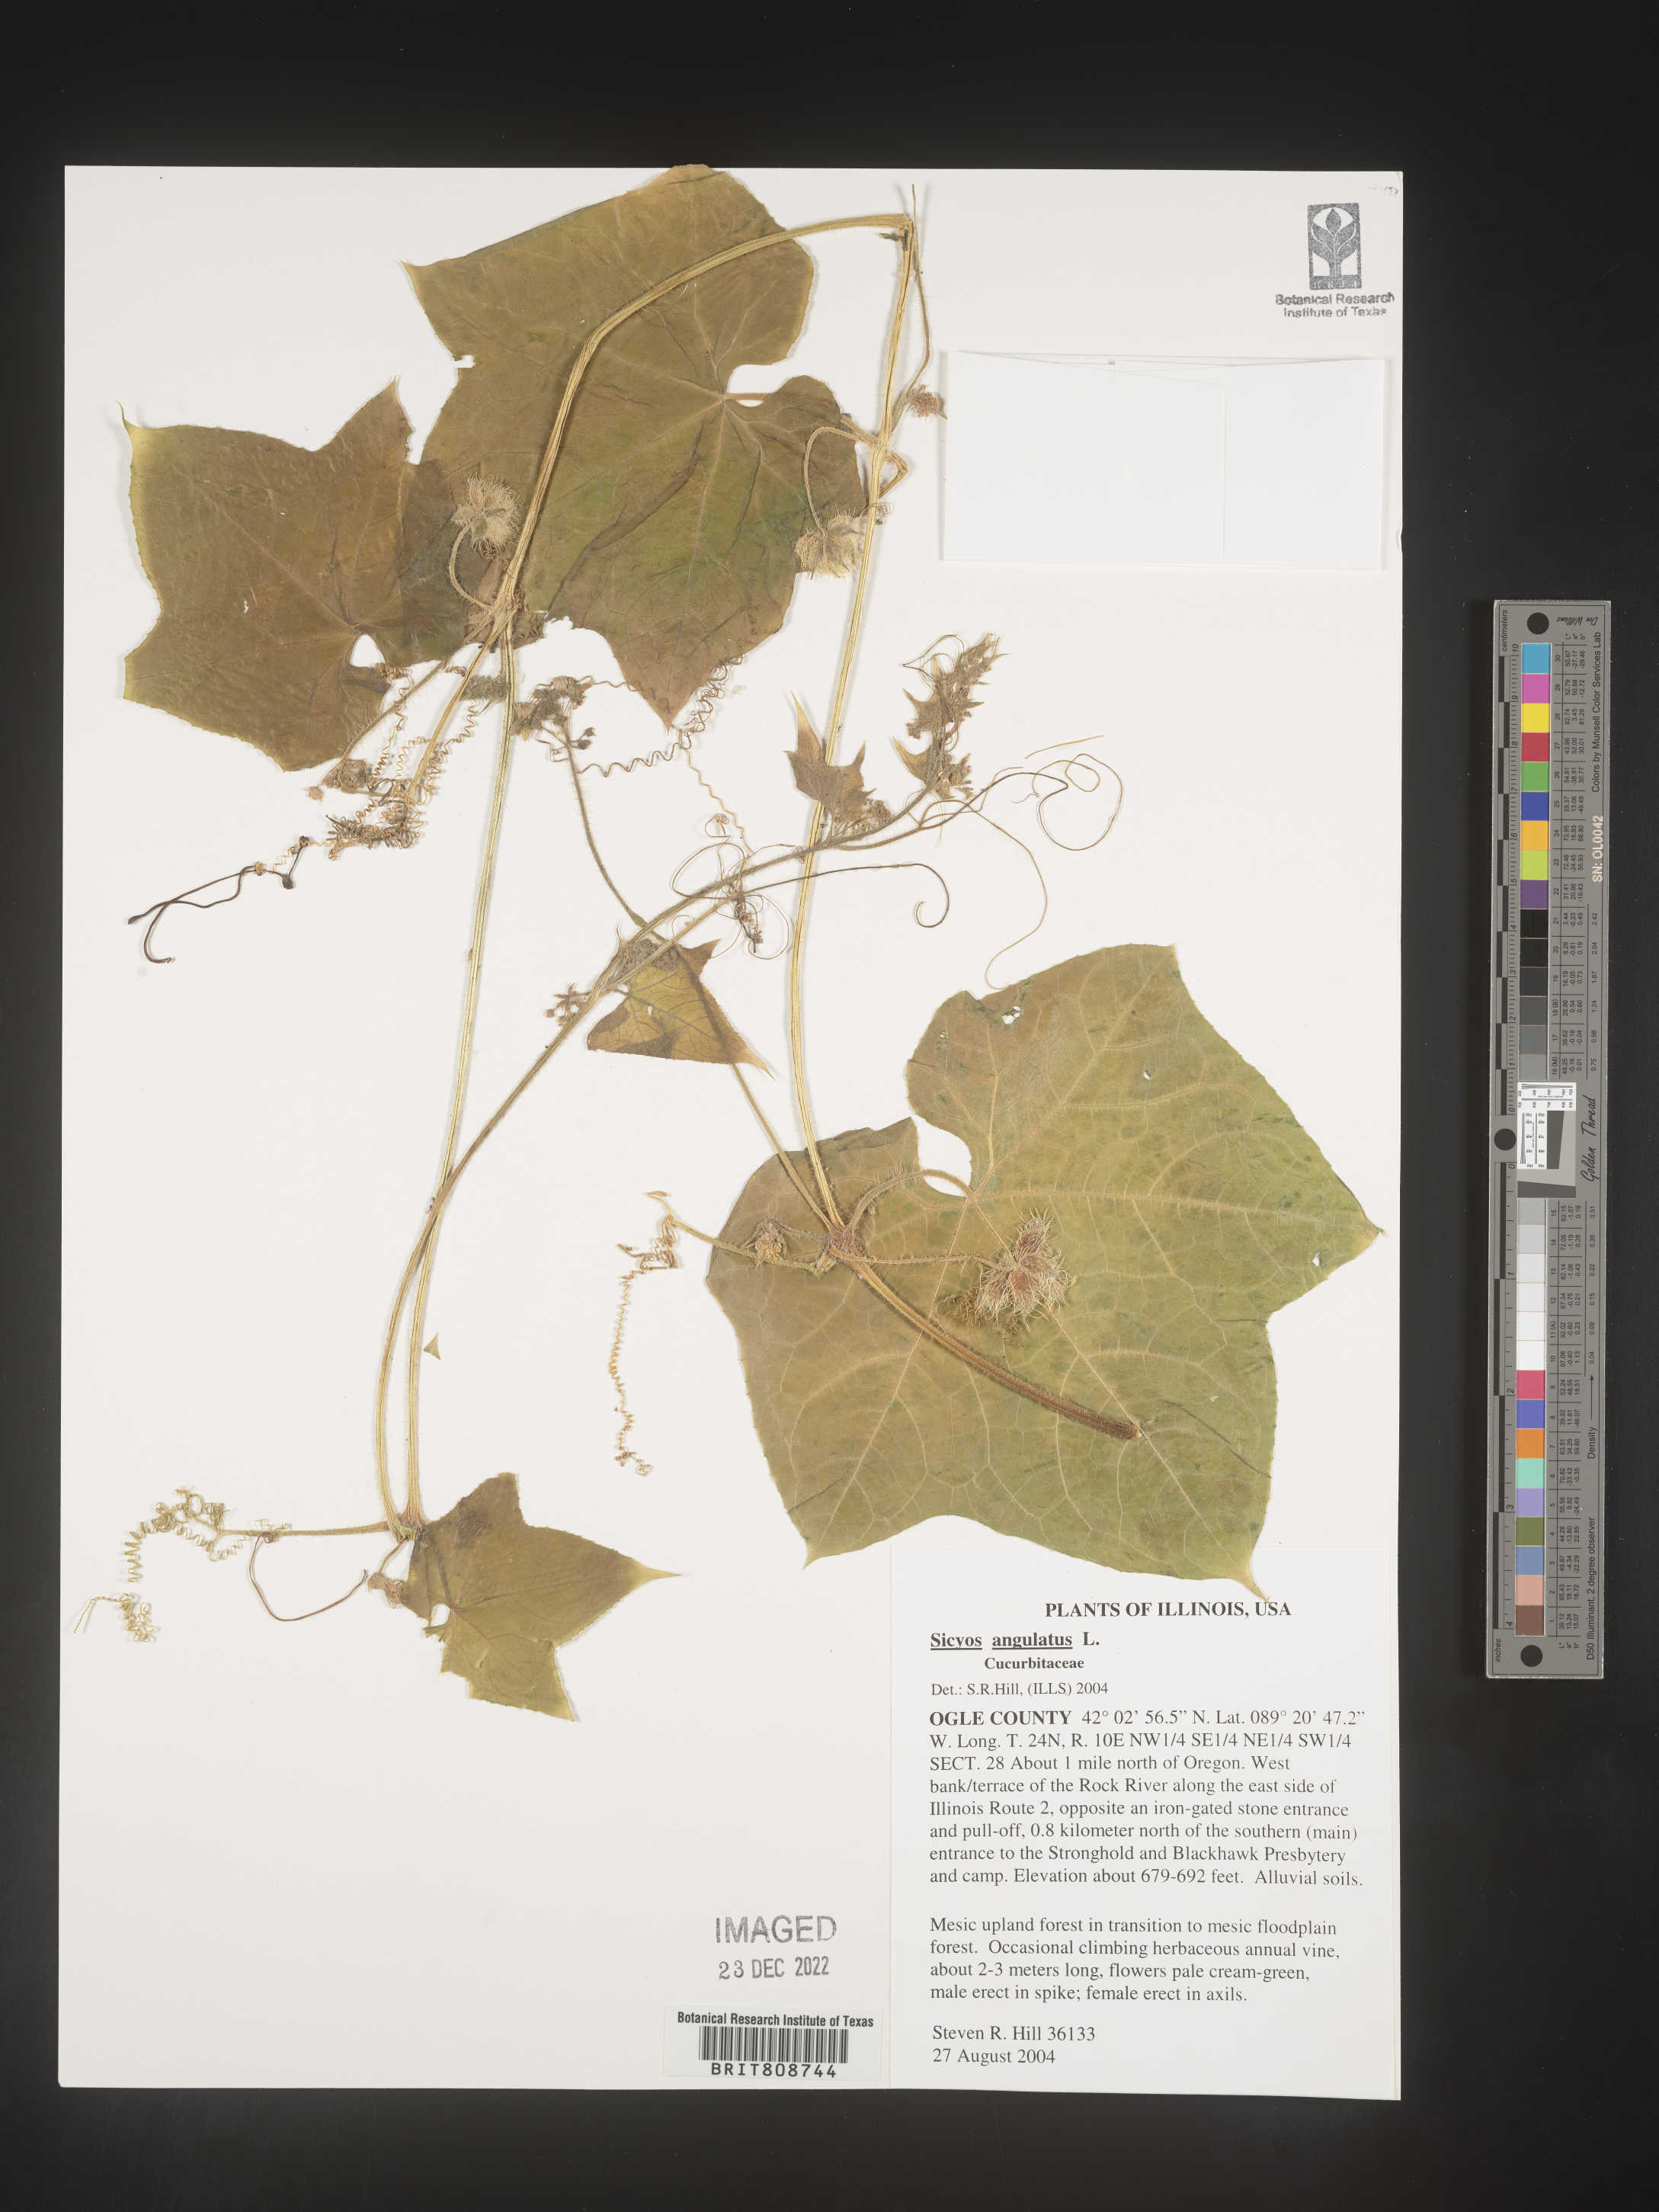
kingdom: Plantae
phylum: Tracheophyta
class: Magnoliopsida
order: Cucurbitales
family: Cucurbitaceae
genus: Sicyos
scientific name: Sicyos angulatus
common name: Angled burr cucumber
